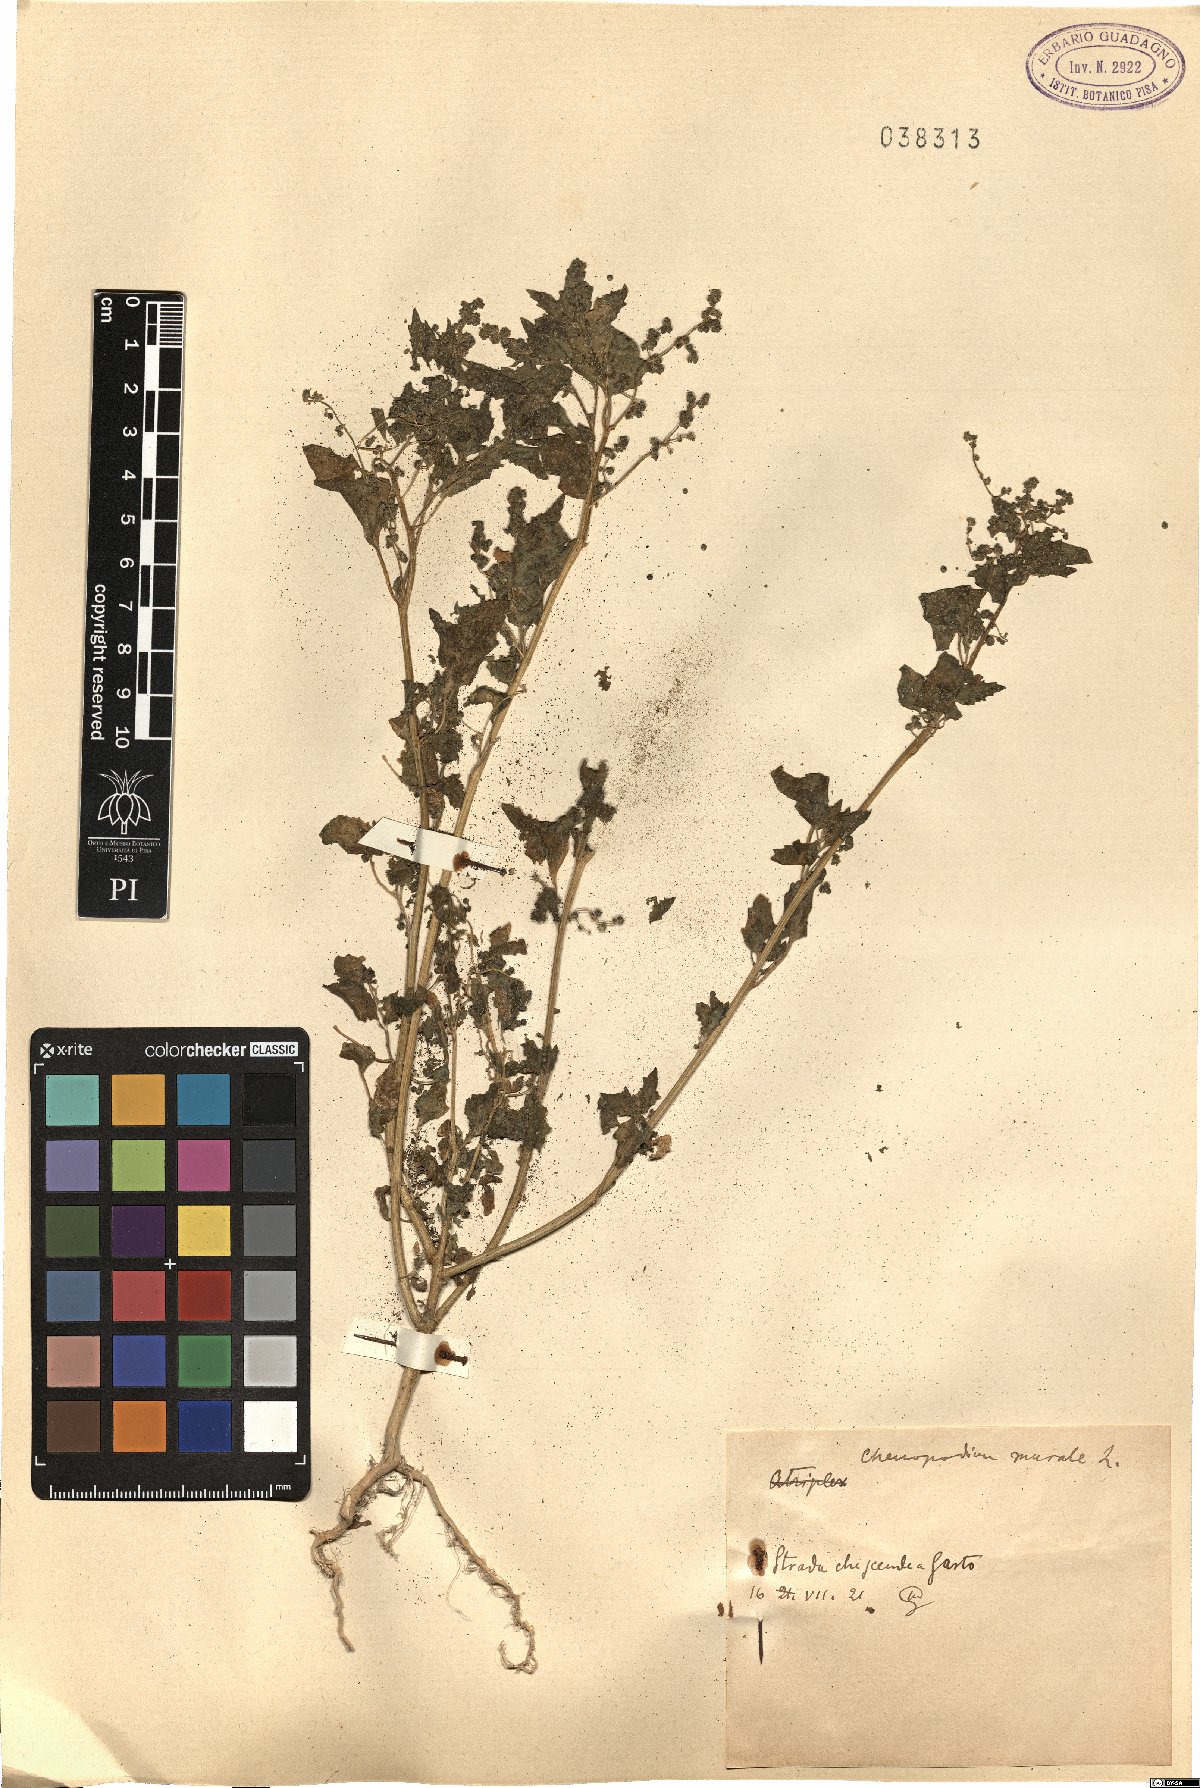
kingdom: Plantae
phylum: Tracheophyta
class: Magnoliopsida
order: Caryophyllales
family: Amaranthaceae
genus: Chenopodiastrum
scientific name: Chenopodiastrum murale
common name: Sowbane
